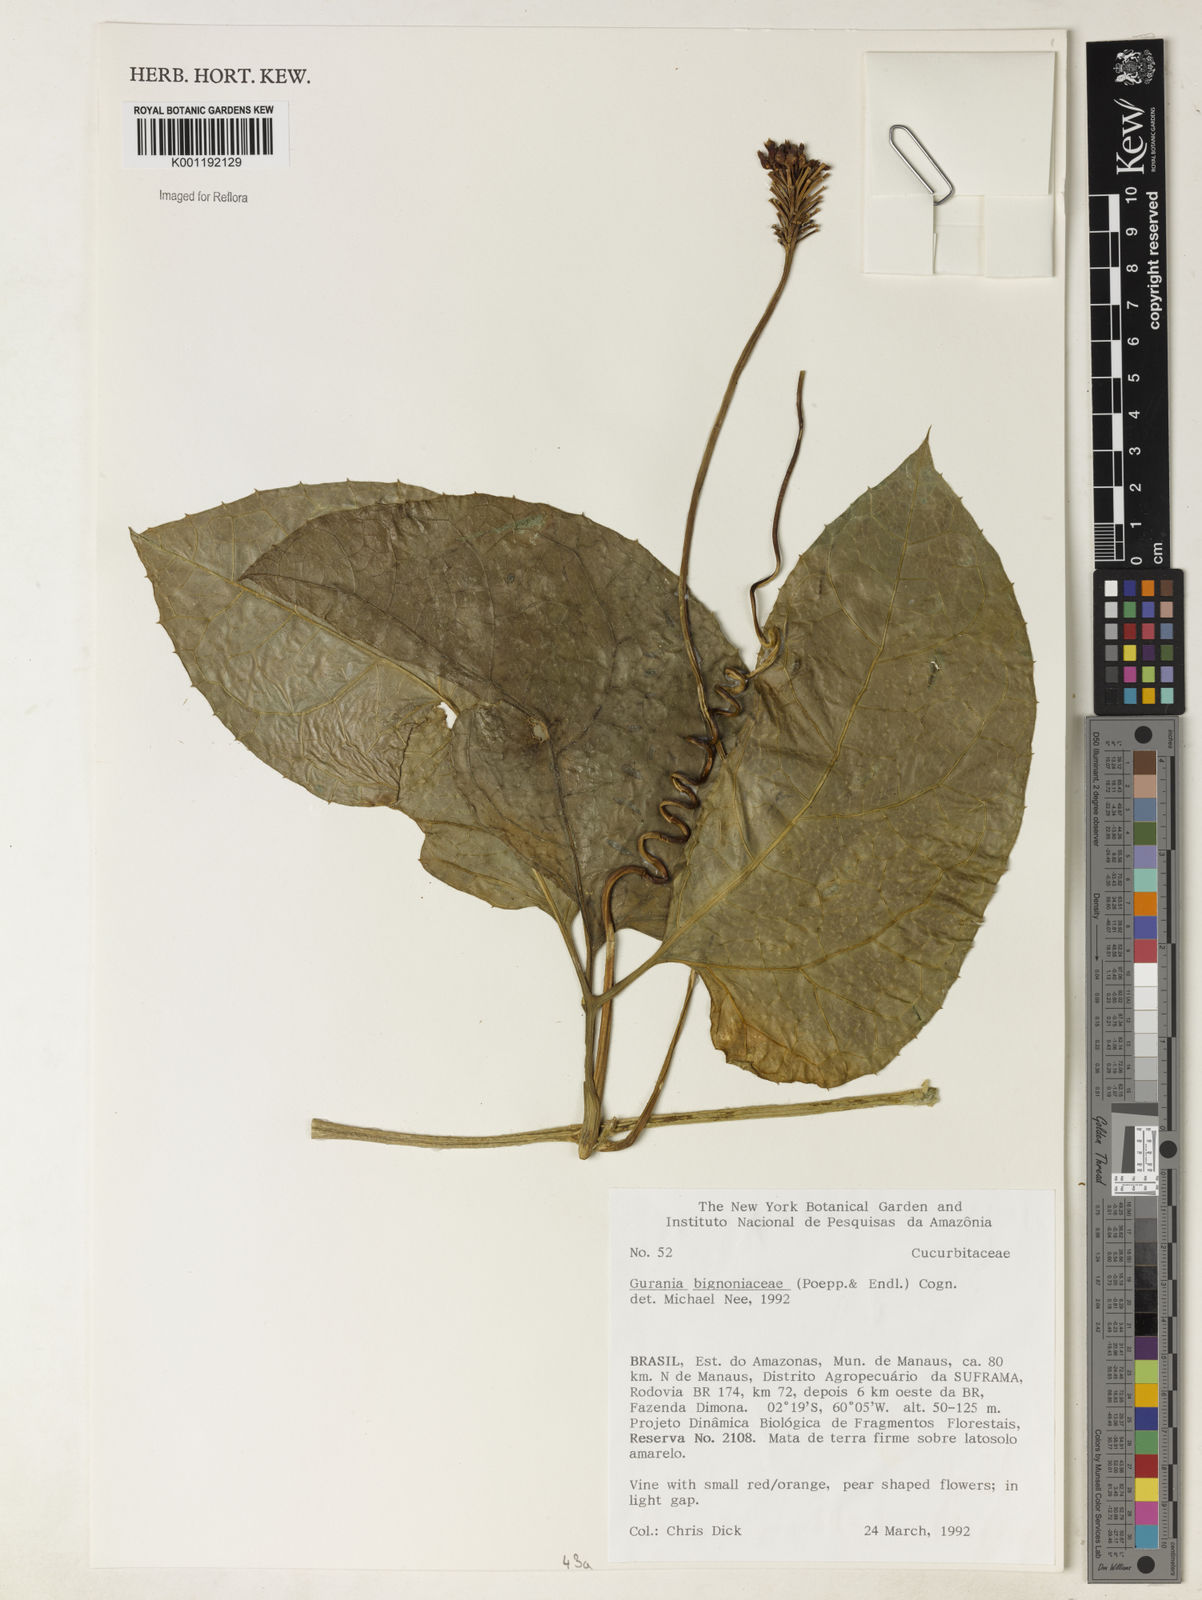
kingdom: Plantae
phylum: Tracheophyta
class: Magnoliopsida
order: Cucurbitales
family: Cucurbitaceae
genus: Gurania
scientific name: Gurania bignoniacea
